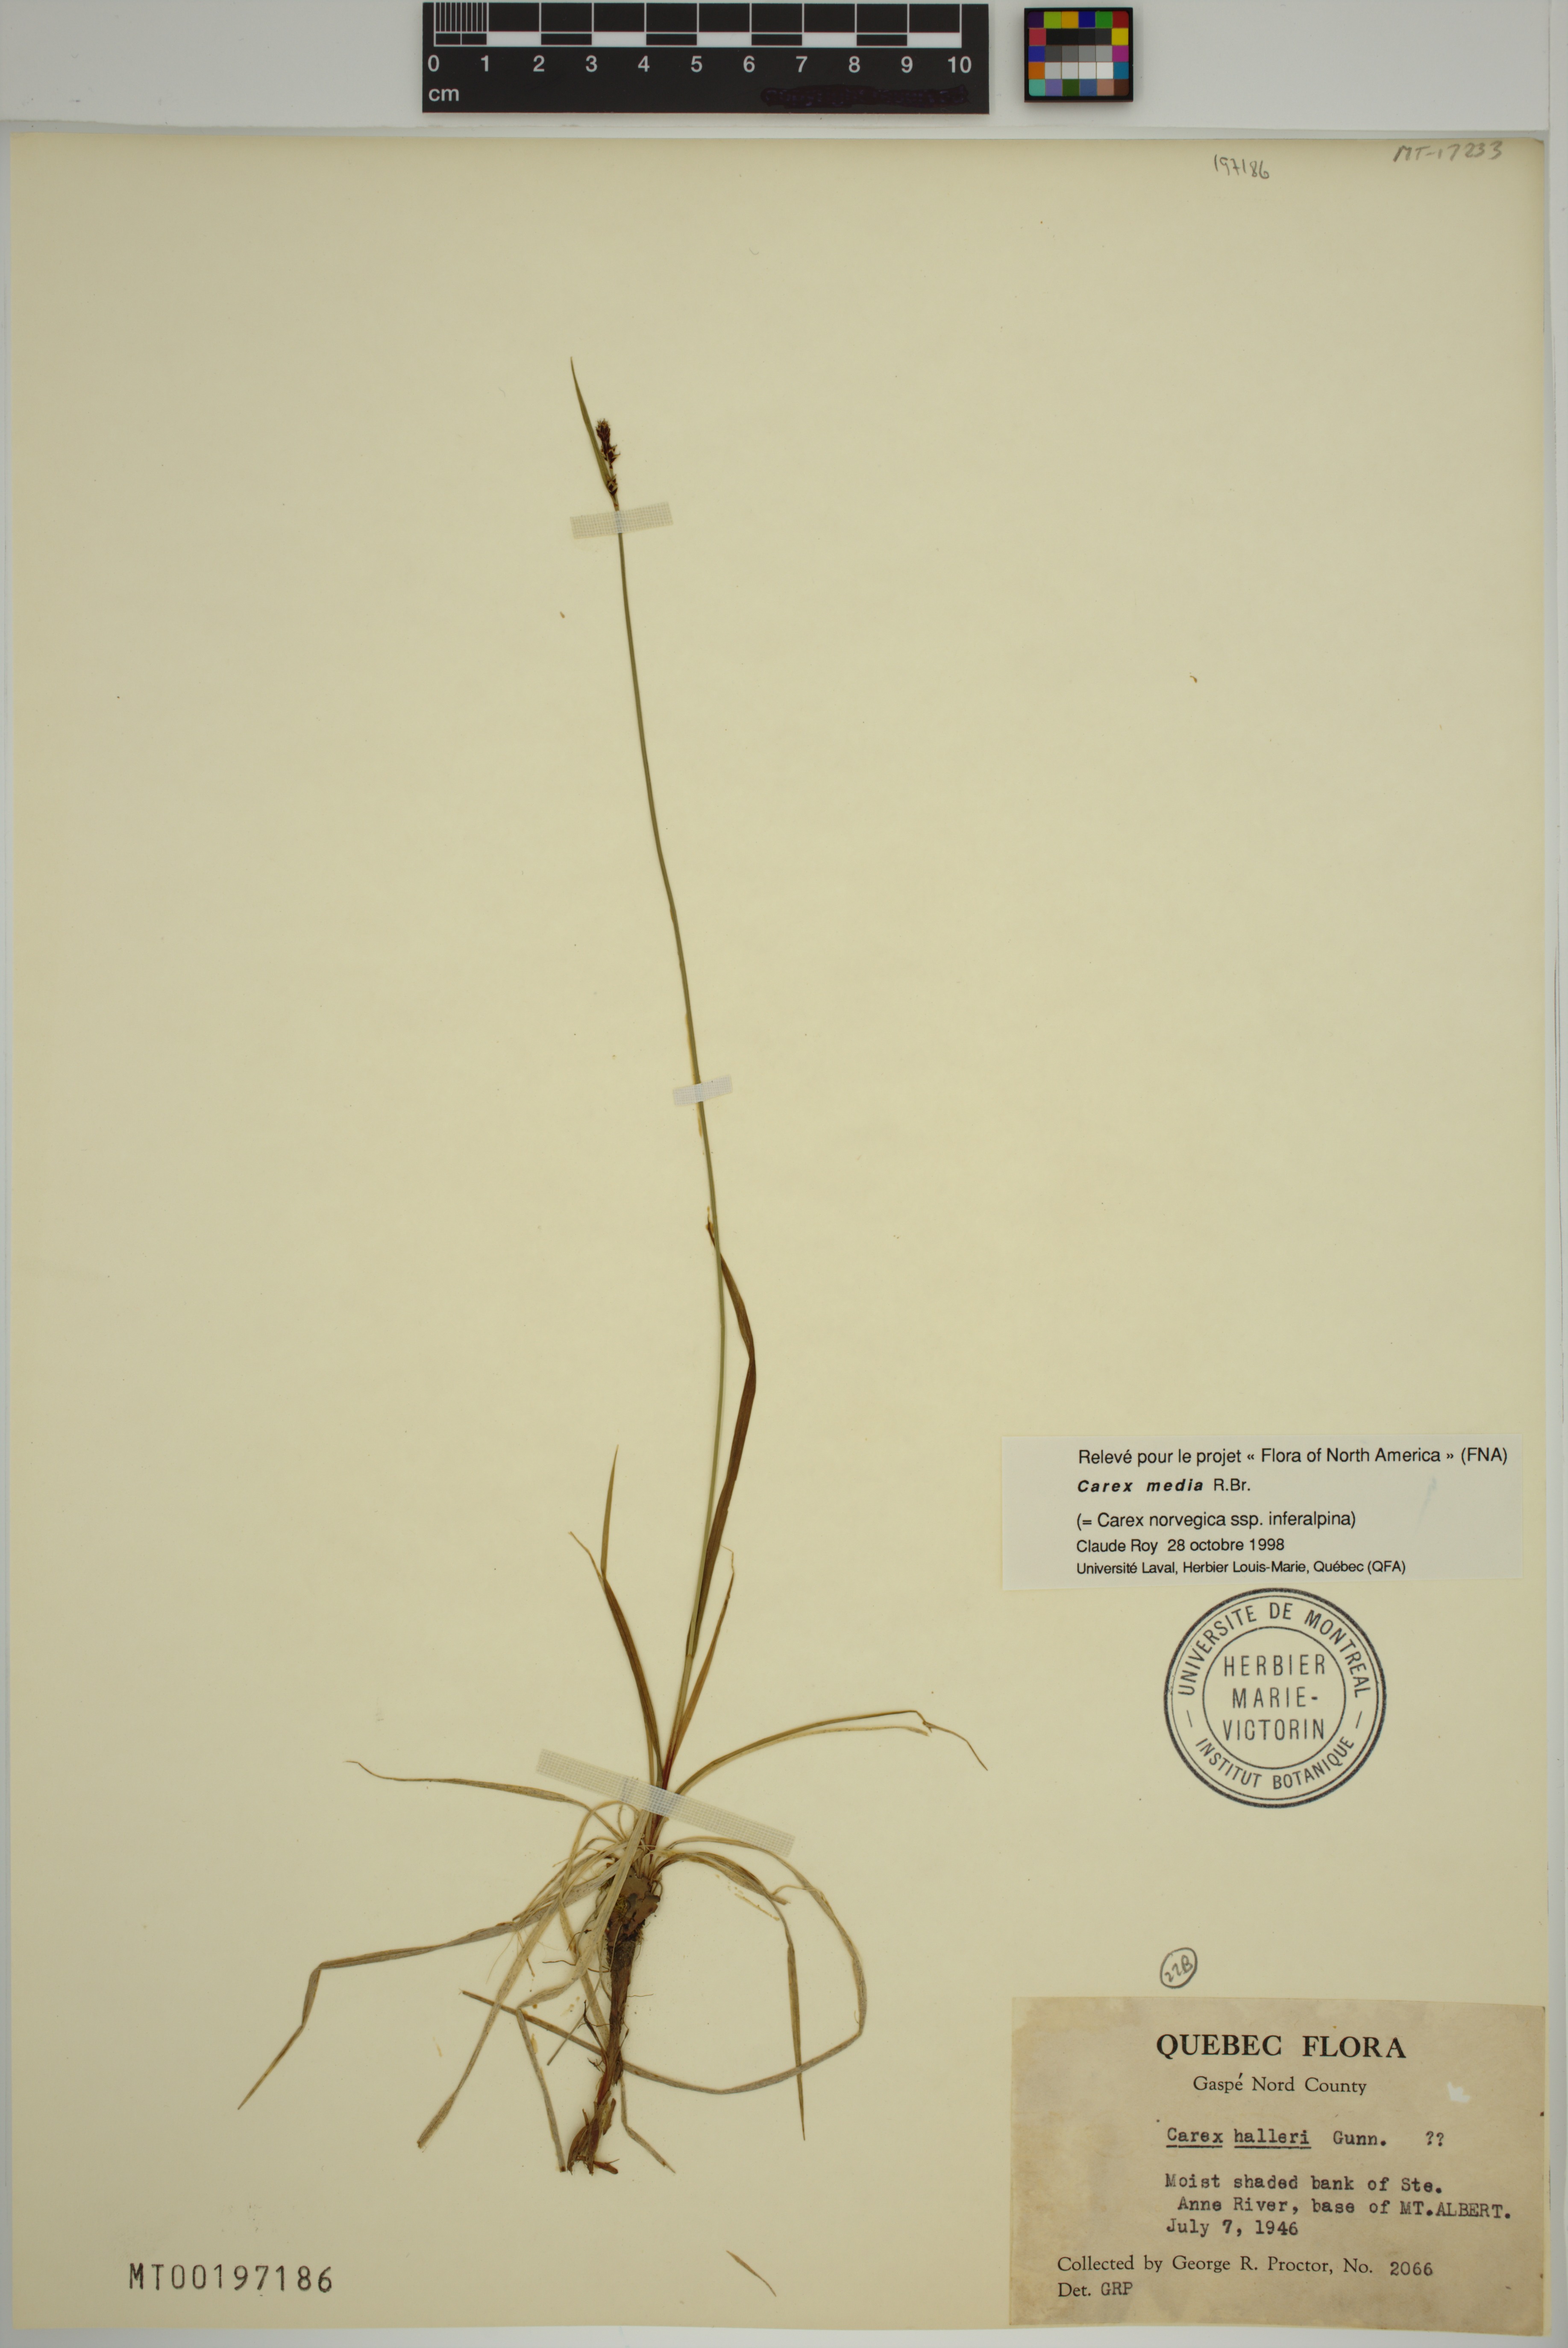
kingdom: Plantae
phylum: Tracheophyta
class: Liliopsida
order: Poales
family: Cyperaceae
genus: Carex
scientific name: Carex media
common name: Alpine sedge
